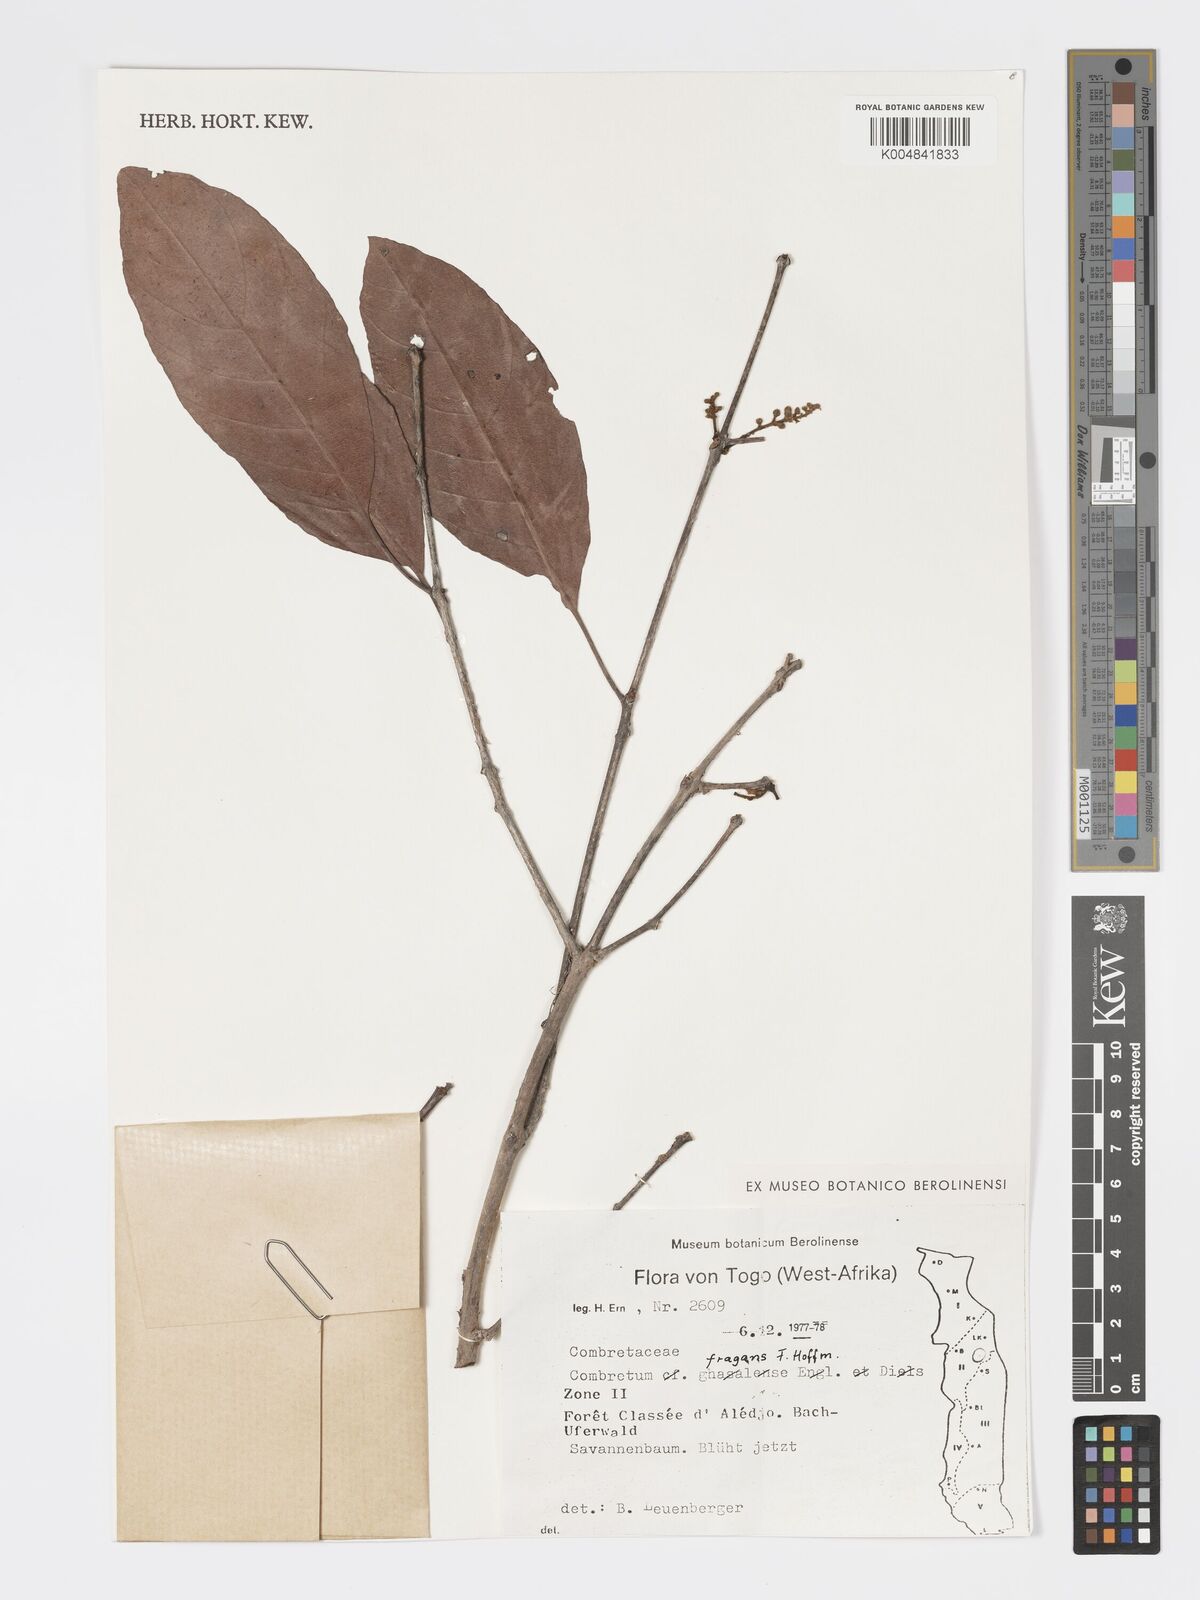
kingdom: Plantae
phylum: Tracheophyta
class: Magnoliopsida
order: Myrtales
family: Combretaceae
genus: Combretum
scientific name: Combretum adenogonium
